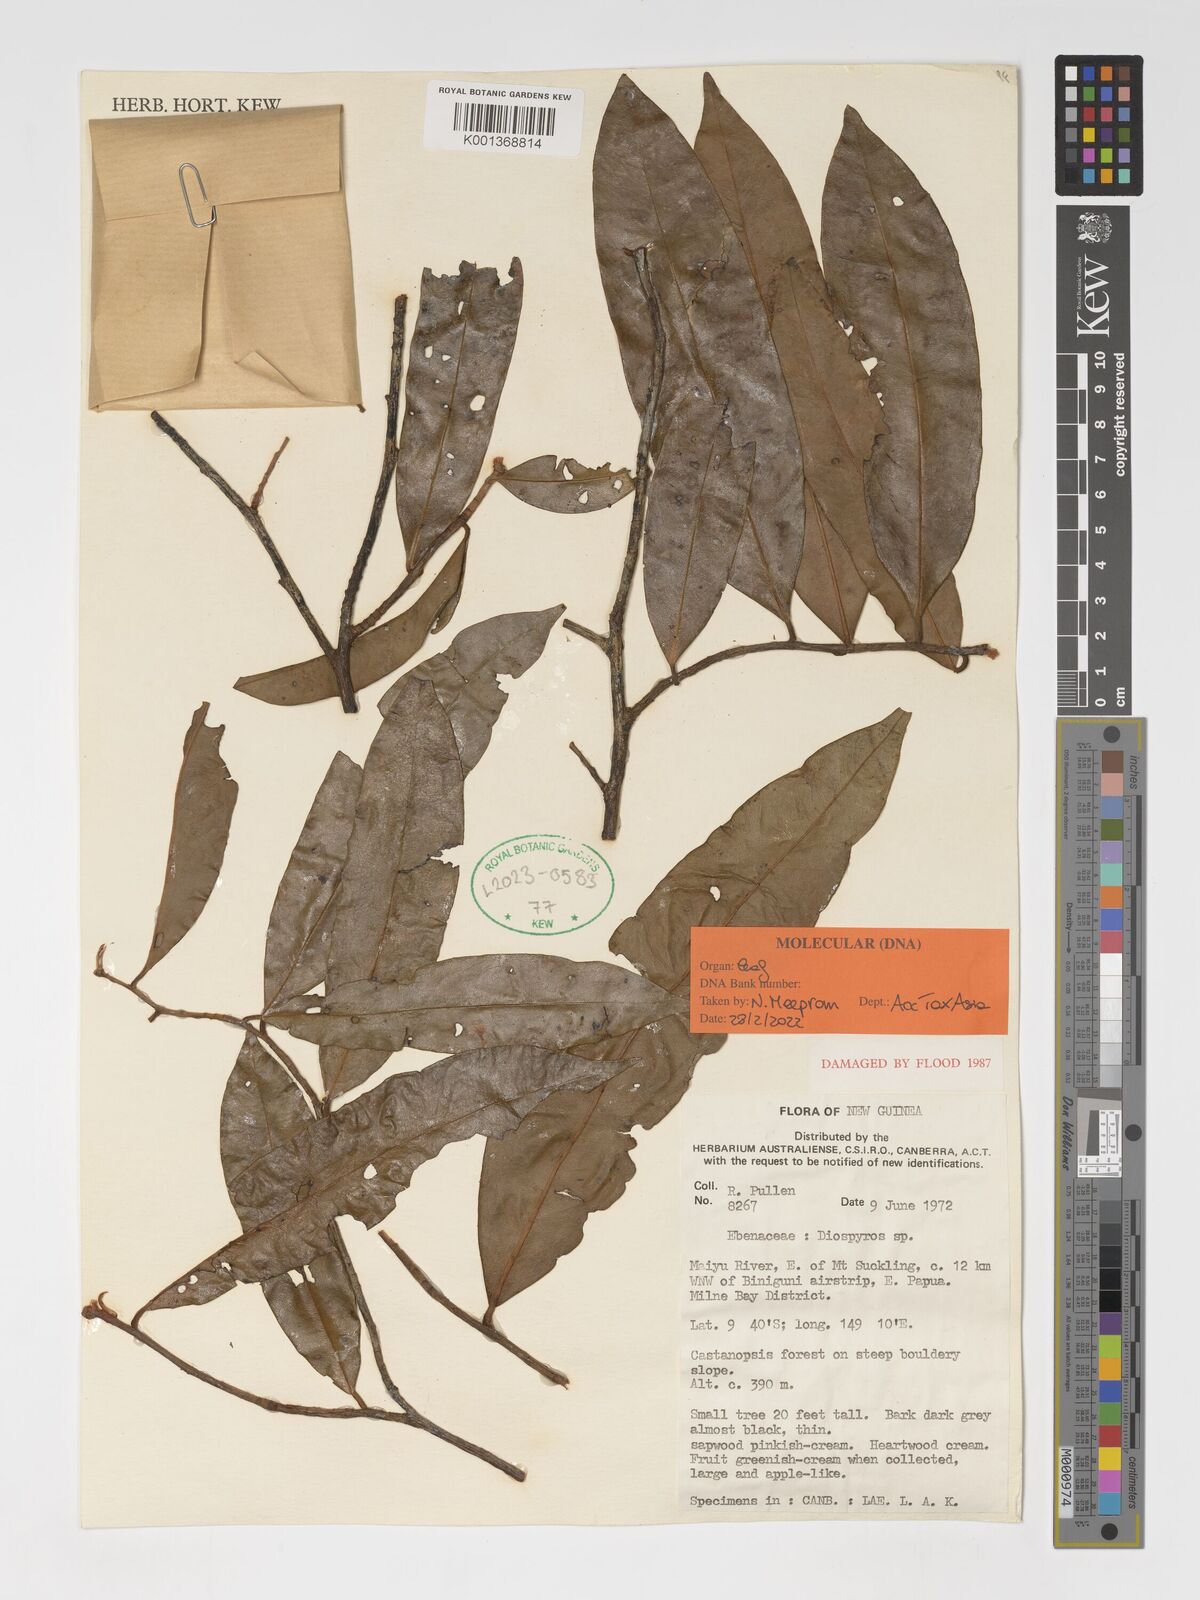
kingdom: Plantae
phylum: Tracheophyta
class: Magnoliopsida
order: Ericales
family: Ebenaceae
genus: Diospyros
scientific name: Diospyros
